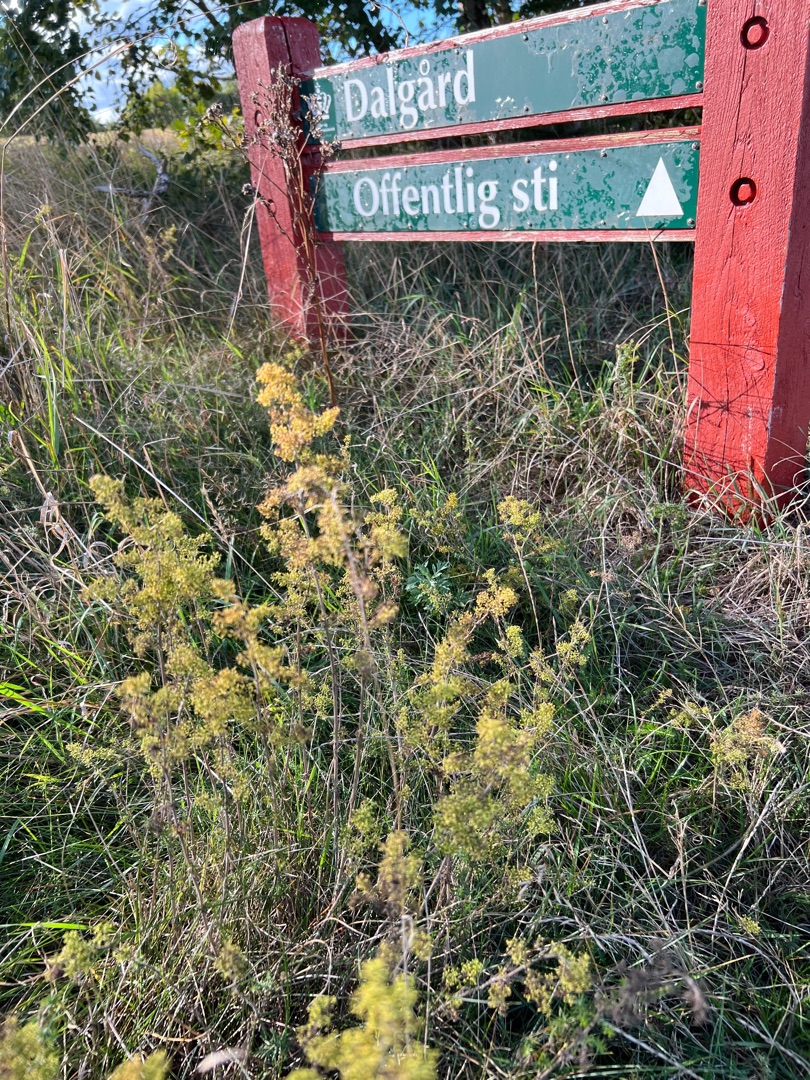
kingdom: Plantae
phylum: Tracheophyta
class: Magnoliopsida
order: Gentianales
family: Rubiaceae
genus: Galium
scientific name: Galium verum
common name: Gul snerre
